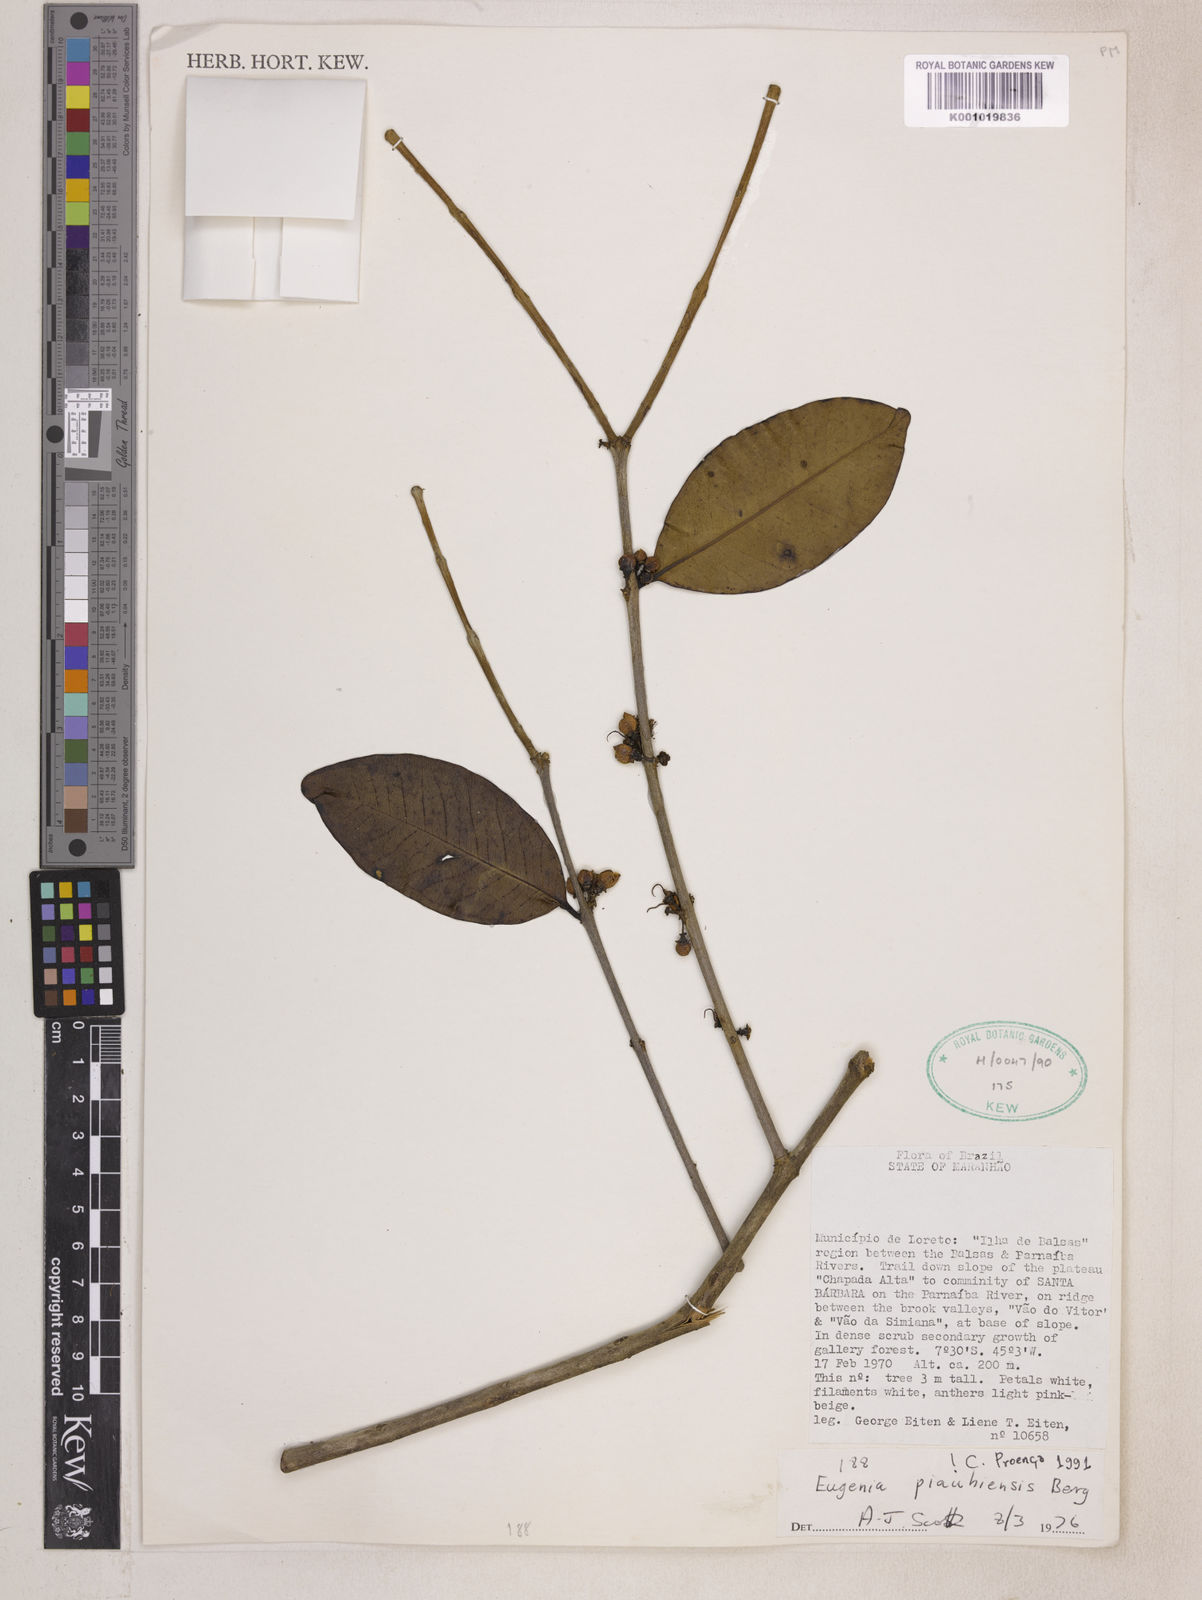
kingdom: Plantae
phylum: Tracheophyta
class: Magnoliopsida
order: Myrtales
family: Myrtaceae
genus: Eugenia
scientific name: Eugenia stictopetala
